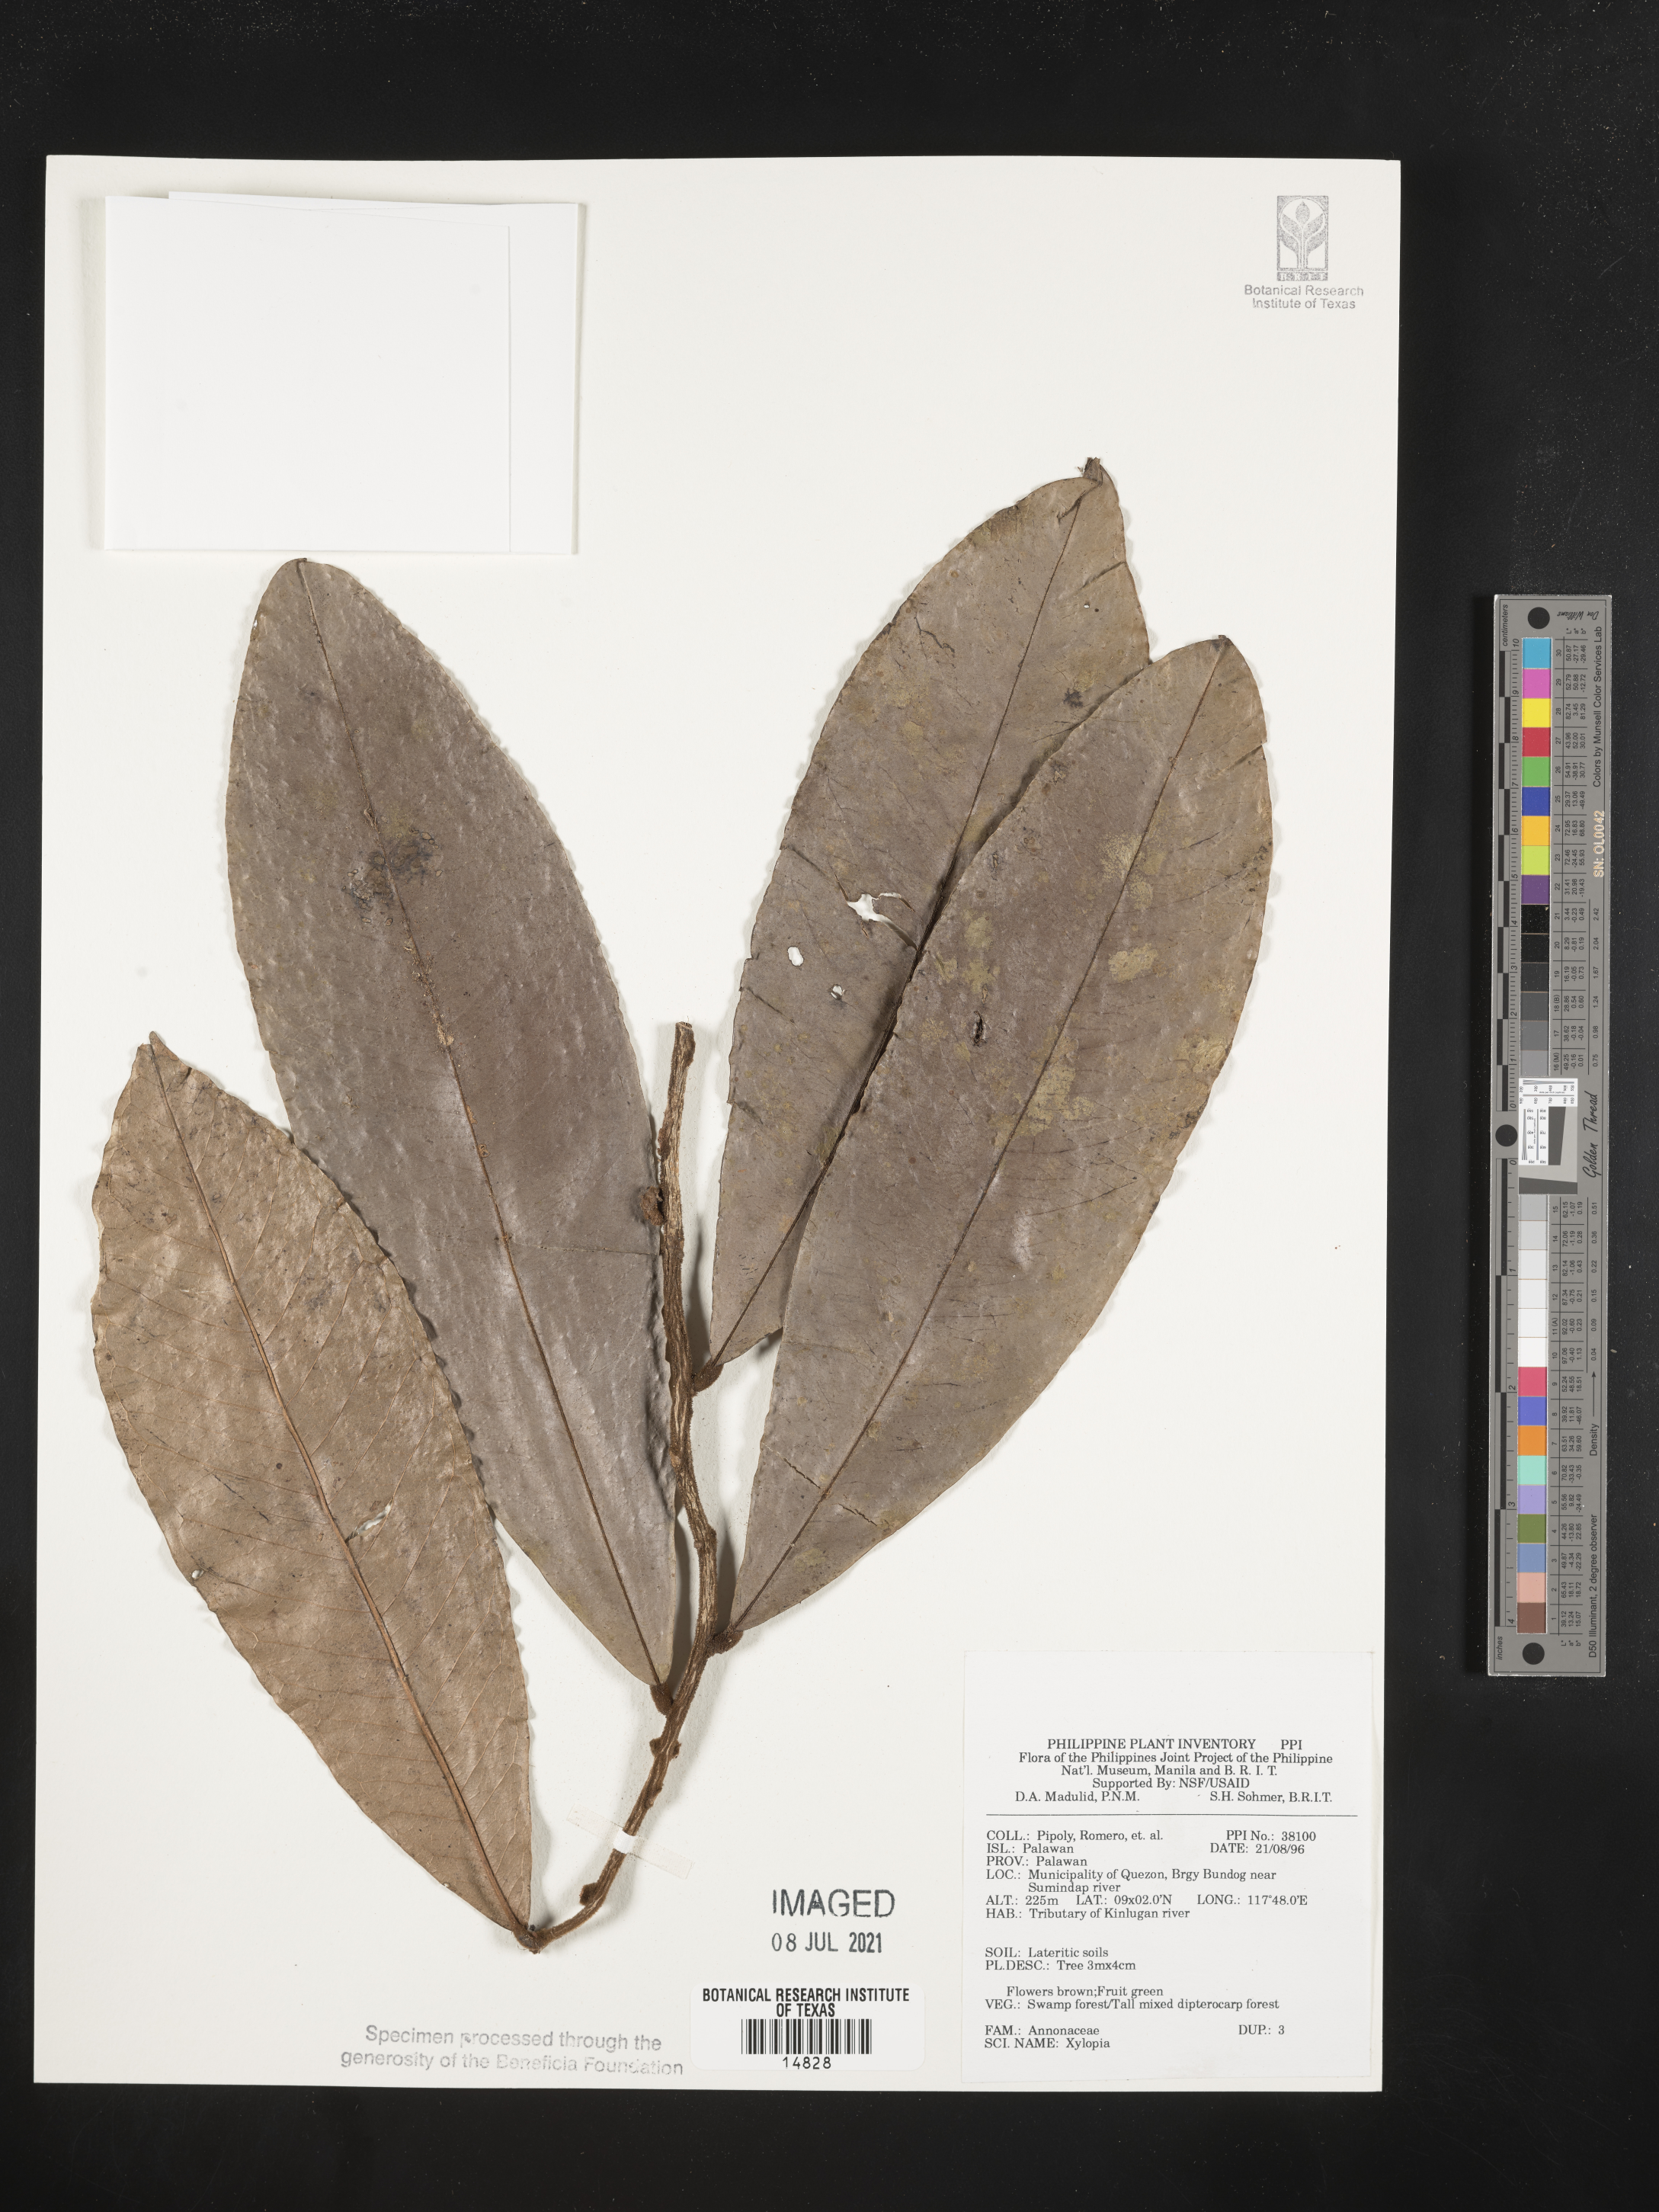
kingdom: Plantae
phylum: Tracheophyta
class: Magnoliopsida
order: Magnoliales
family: Annonaceae
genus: Xylopia
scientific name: Xylopia
